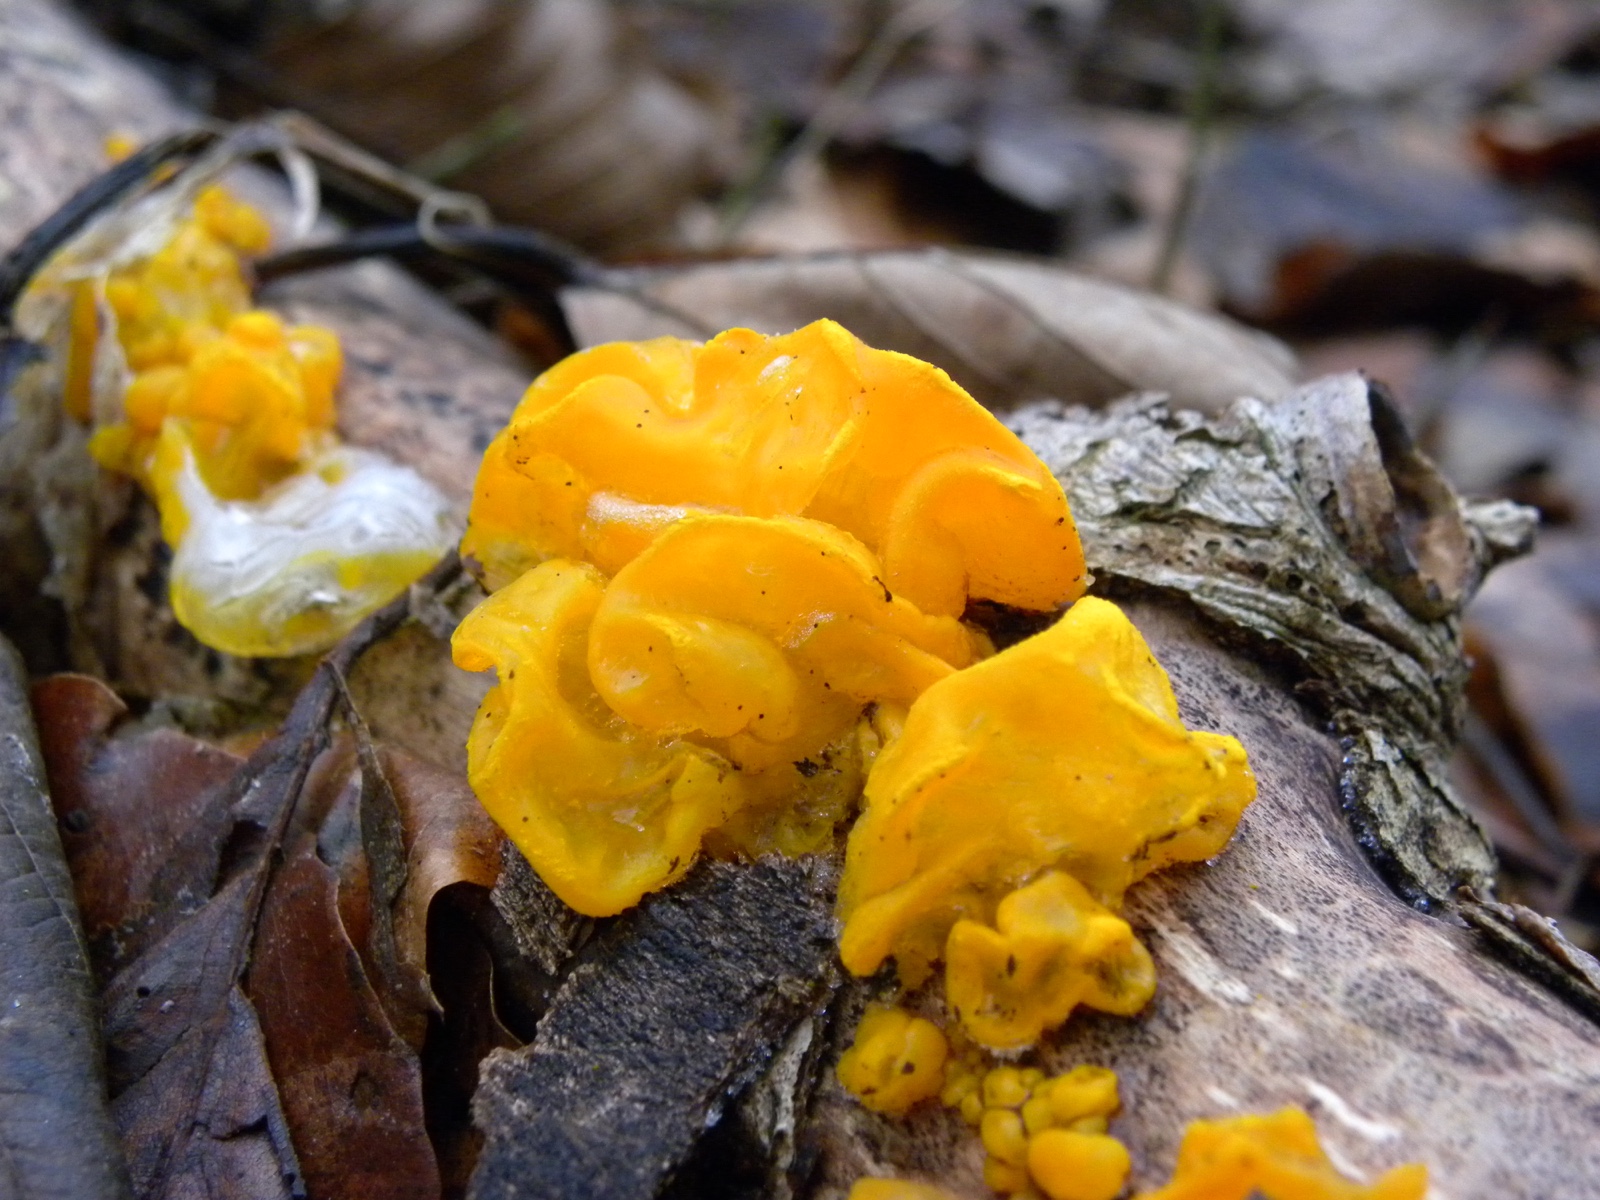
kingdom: Fungi
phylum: Basidiomycota
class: Tremellomycetes
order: Tremellales
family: Tremellaceae
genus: Tremella
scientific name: Tremella mesenterica
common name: gul bævresvamp
